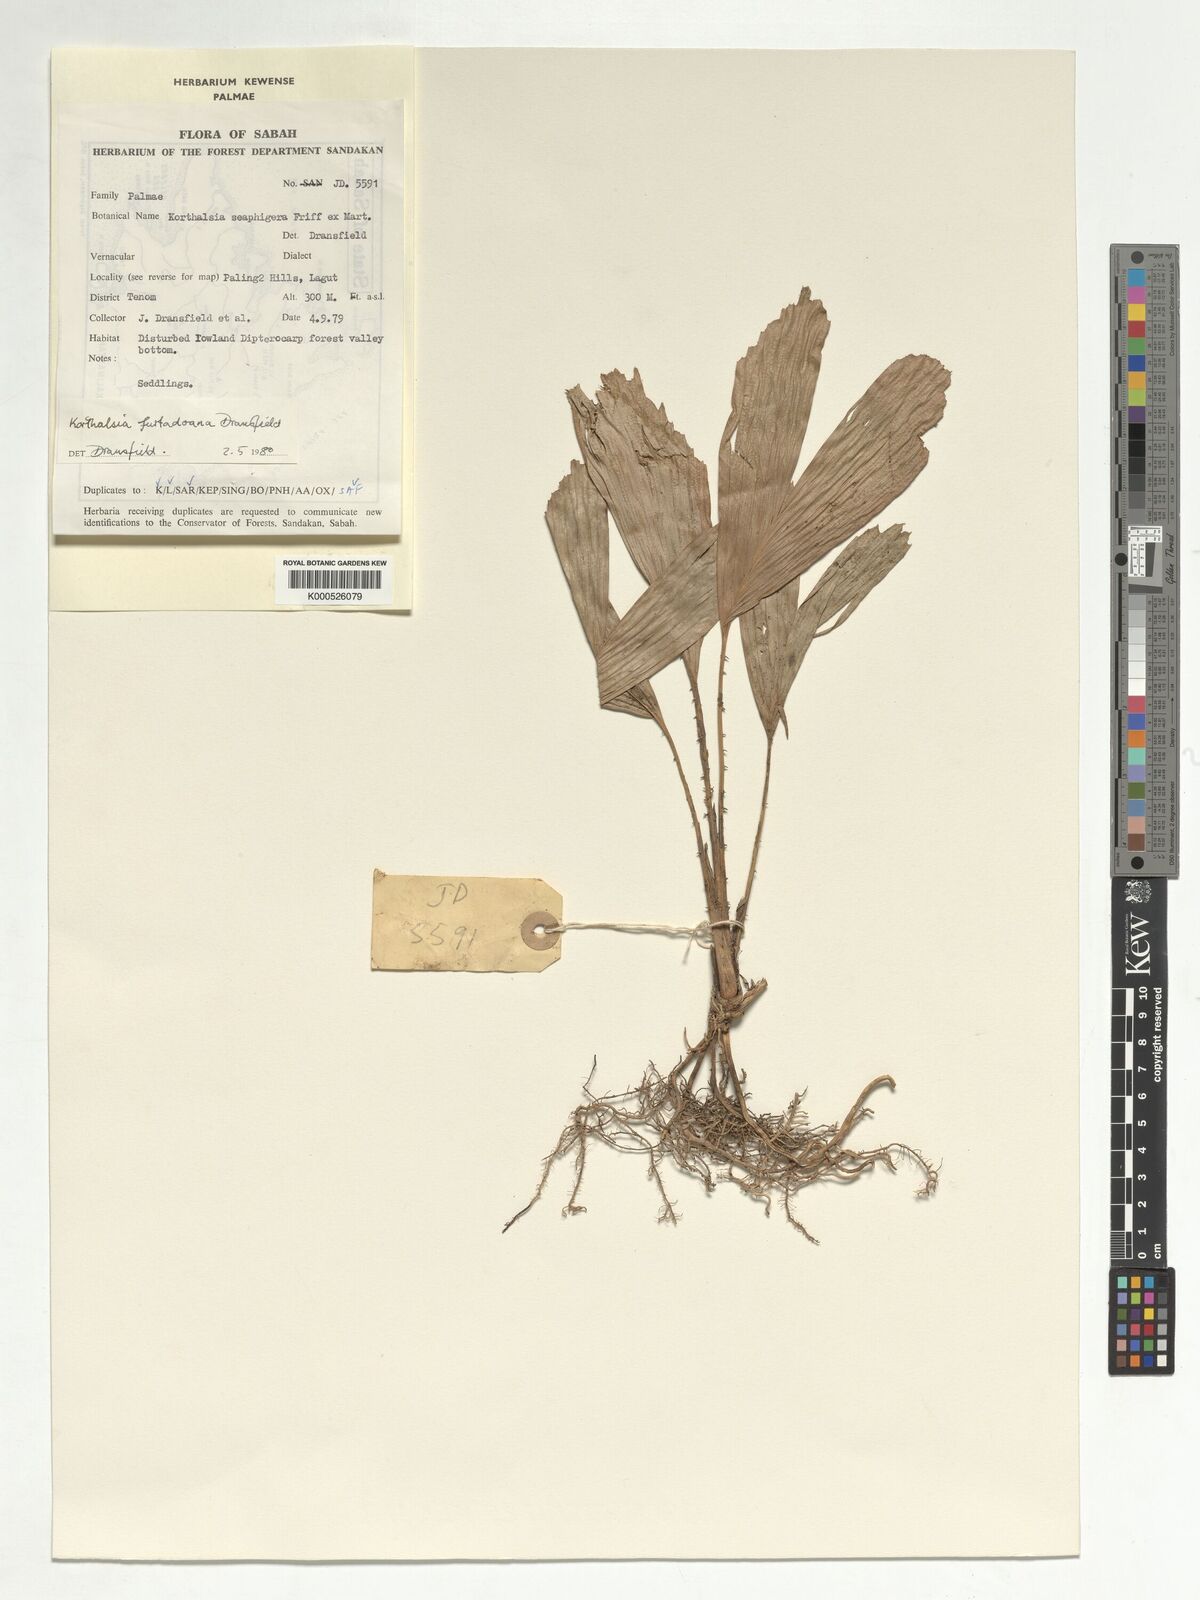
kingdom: Plantae
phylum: Tracheophyta
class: Liliopsida
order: Arecales
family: Arecaceae
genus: Korthalsia
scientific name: Korthalsia furtadoana
